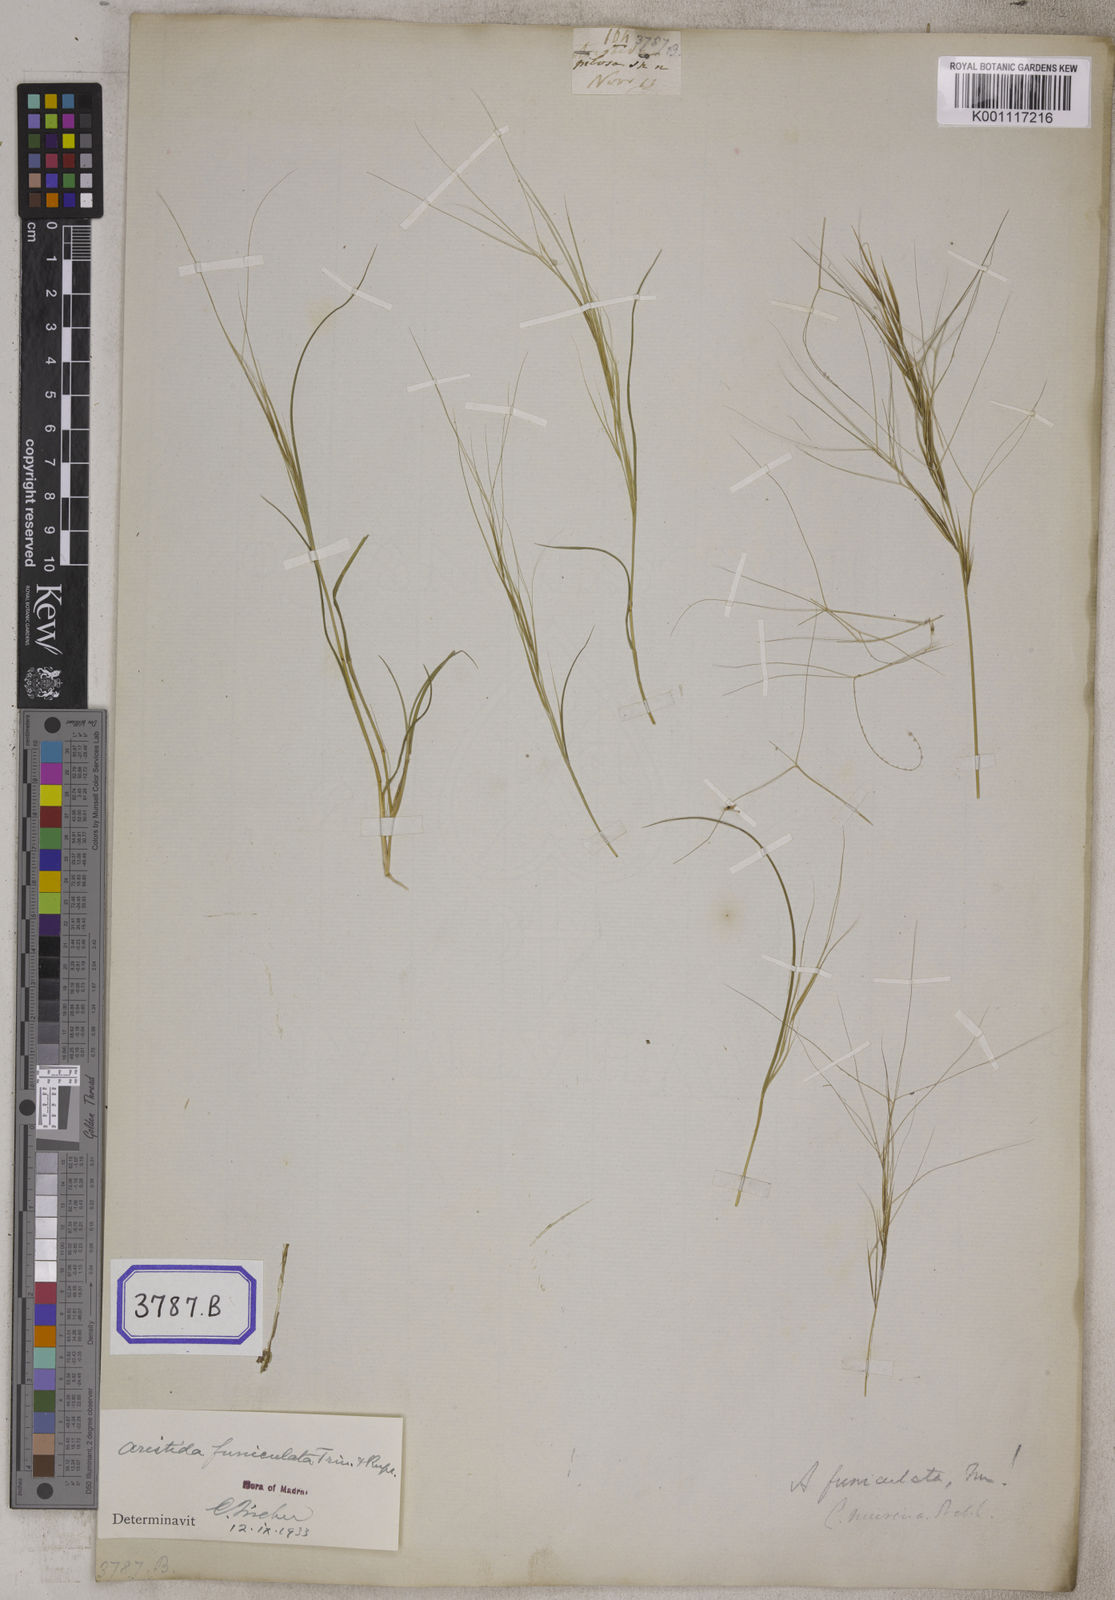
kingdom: Plantae
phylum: Tracheophyta
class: Liliopsida
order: Poales
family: Poaceae
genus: Aristida
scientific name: Aristida
